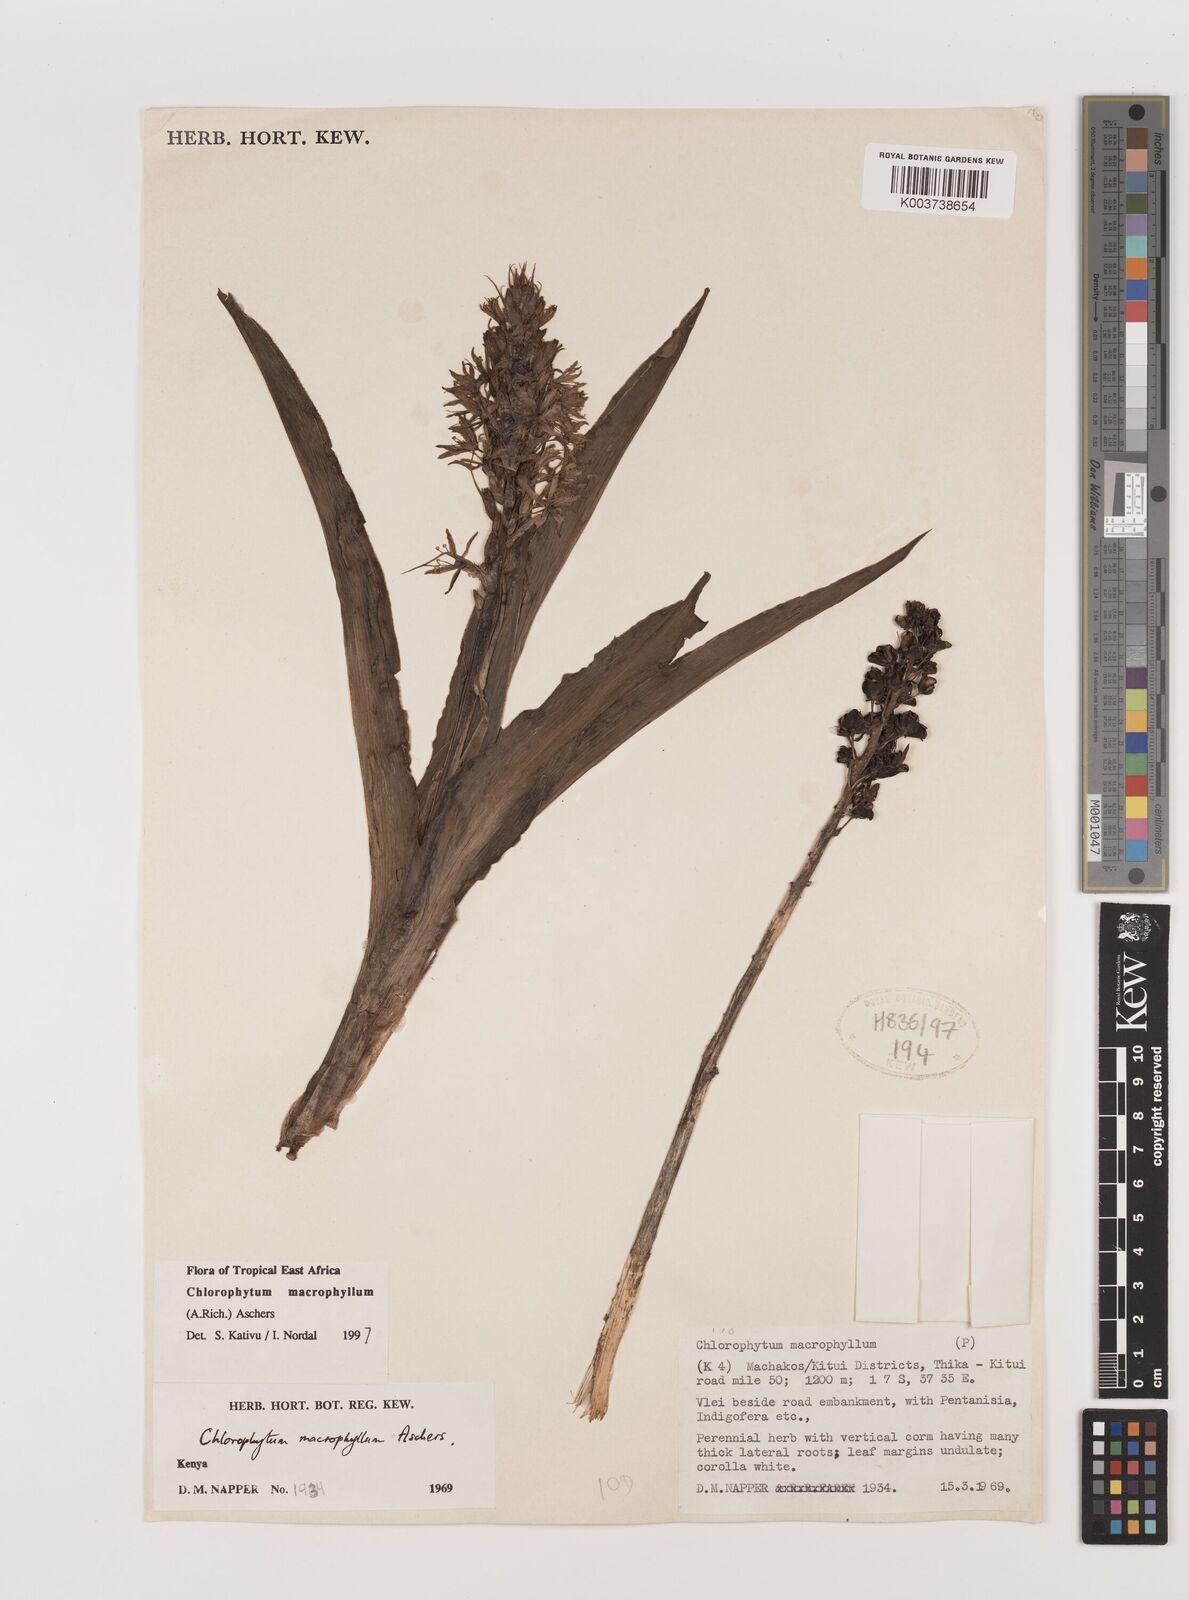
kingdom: Plantae
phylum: Tracheophyta
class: Liliopsida
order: Asparagales
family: Asparagaceae
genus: Chlorophytum
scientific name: Chlorophytum macrophyllum
